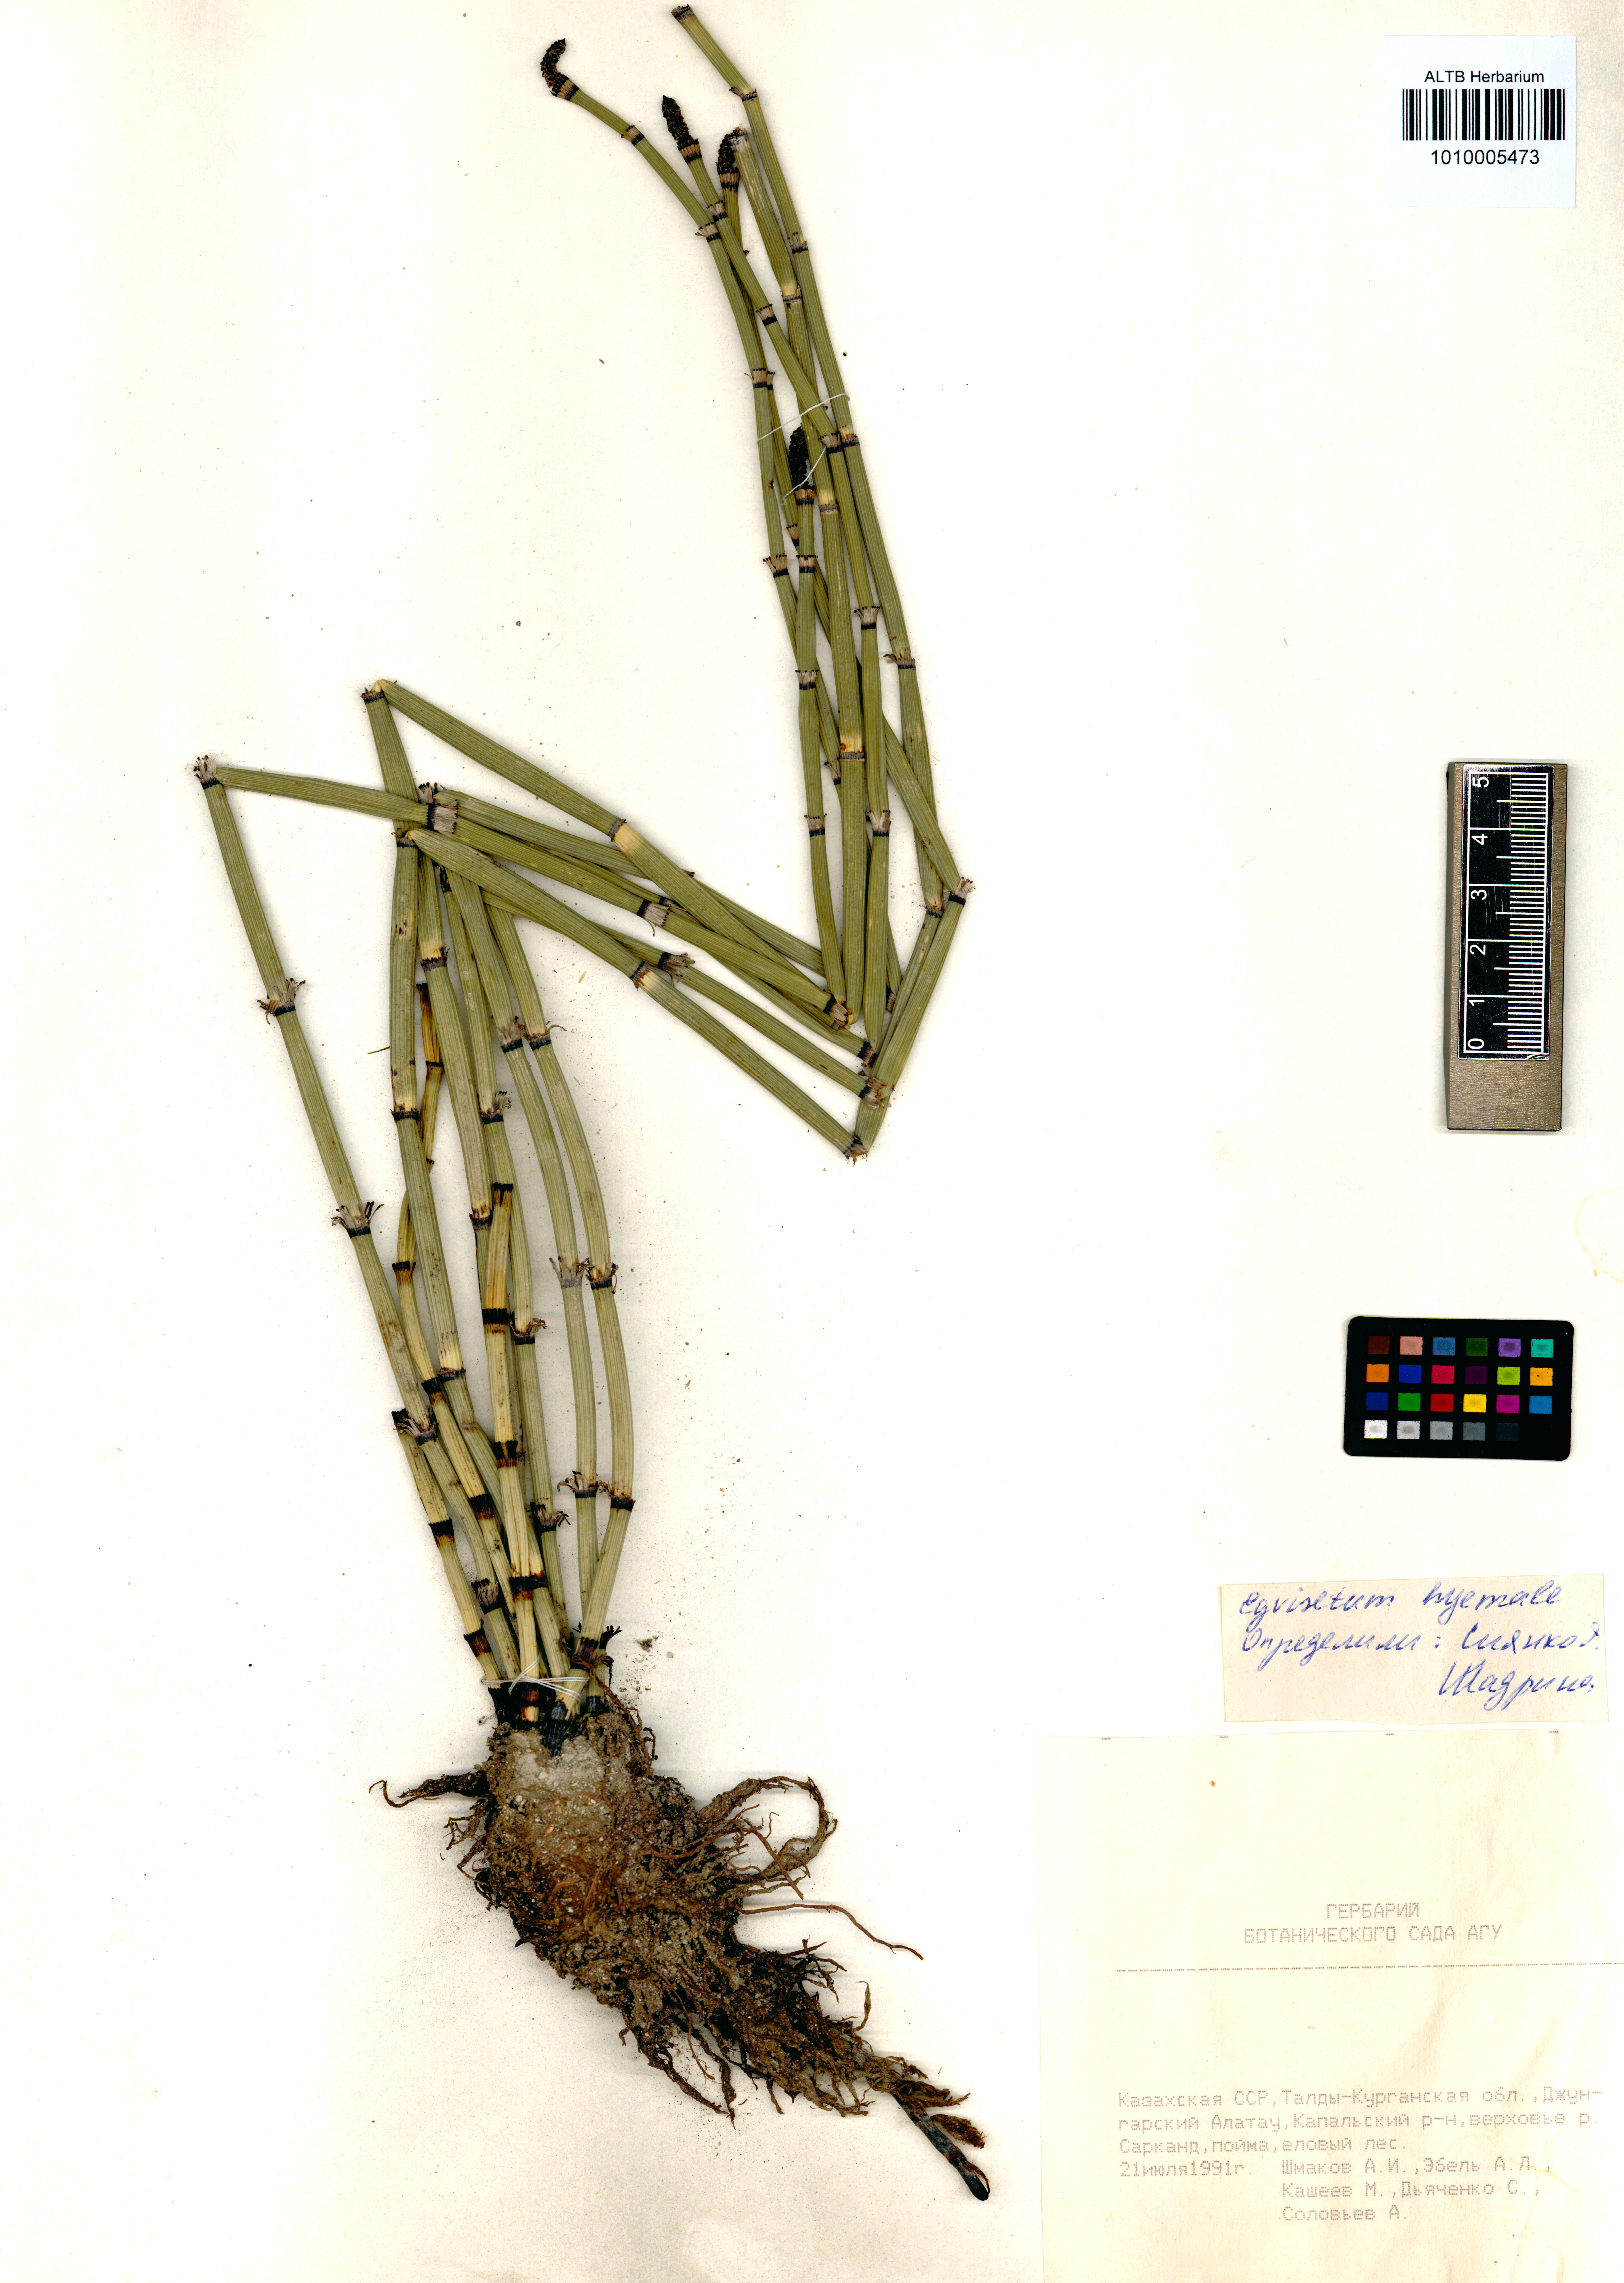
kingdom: Plantae
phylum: Tracheophyta
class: Polypodiopsida
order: Equisetales
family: Equisetaceae
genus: Equisetum
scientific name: Equisetum hyemale
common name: Rough horsetail
